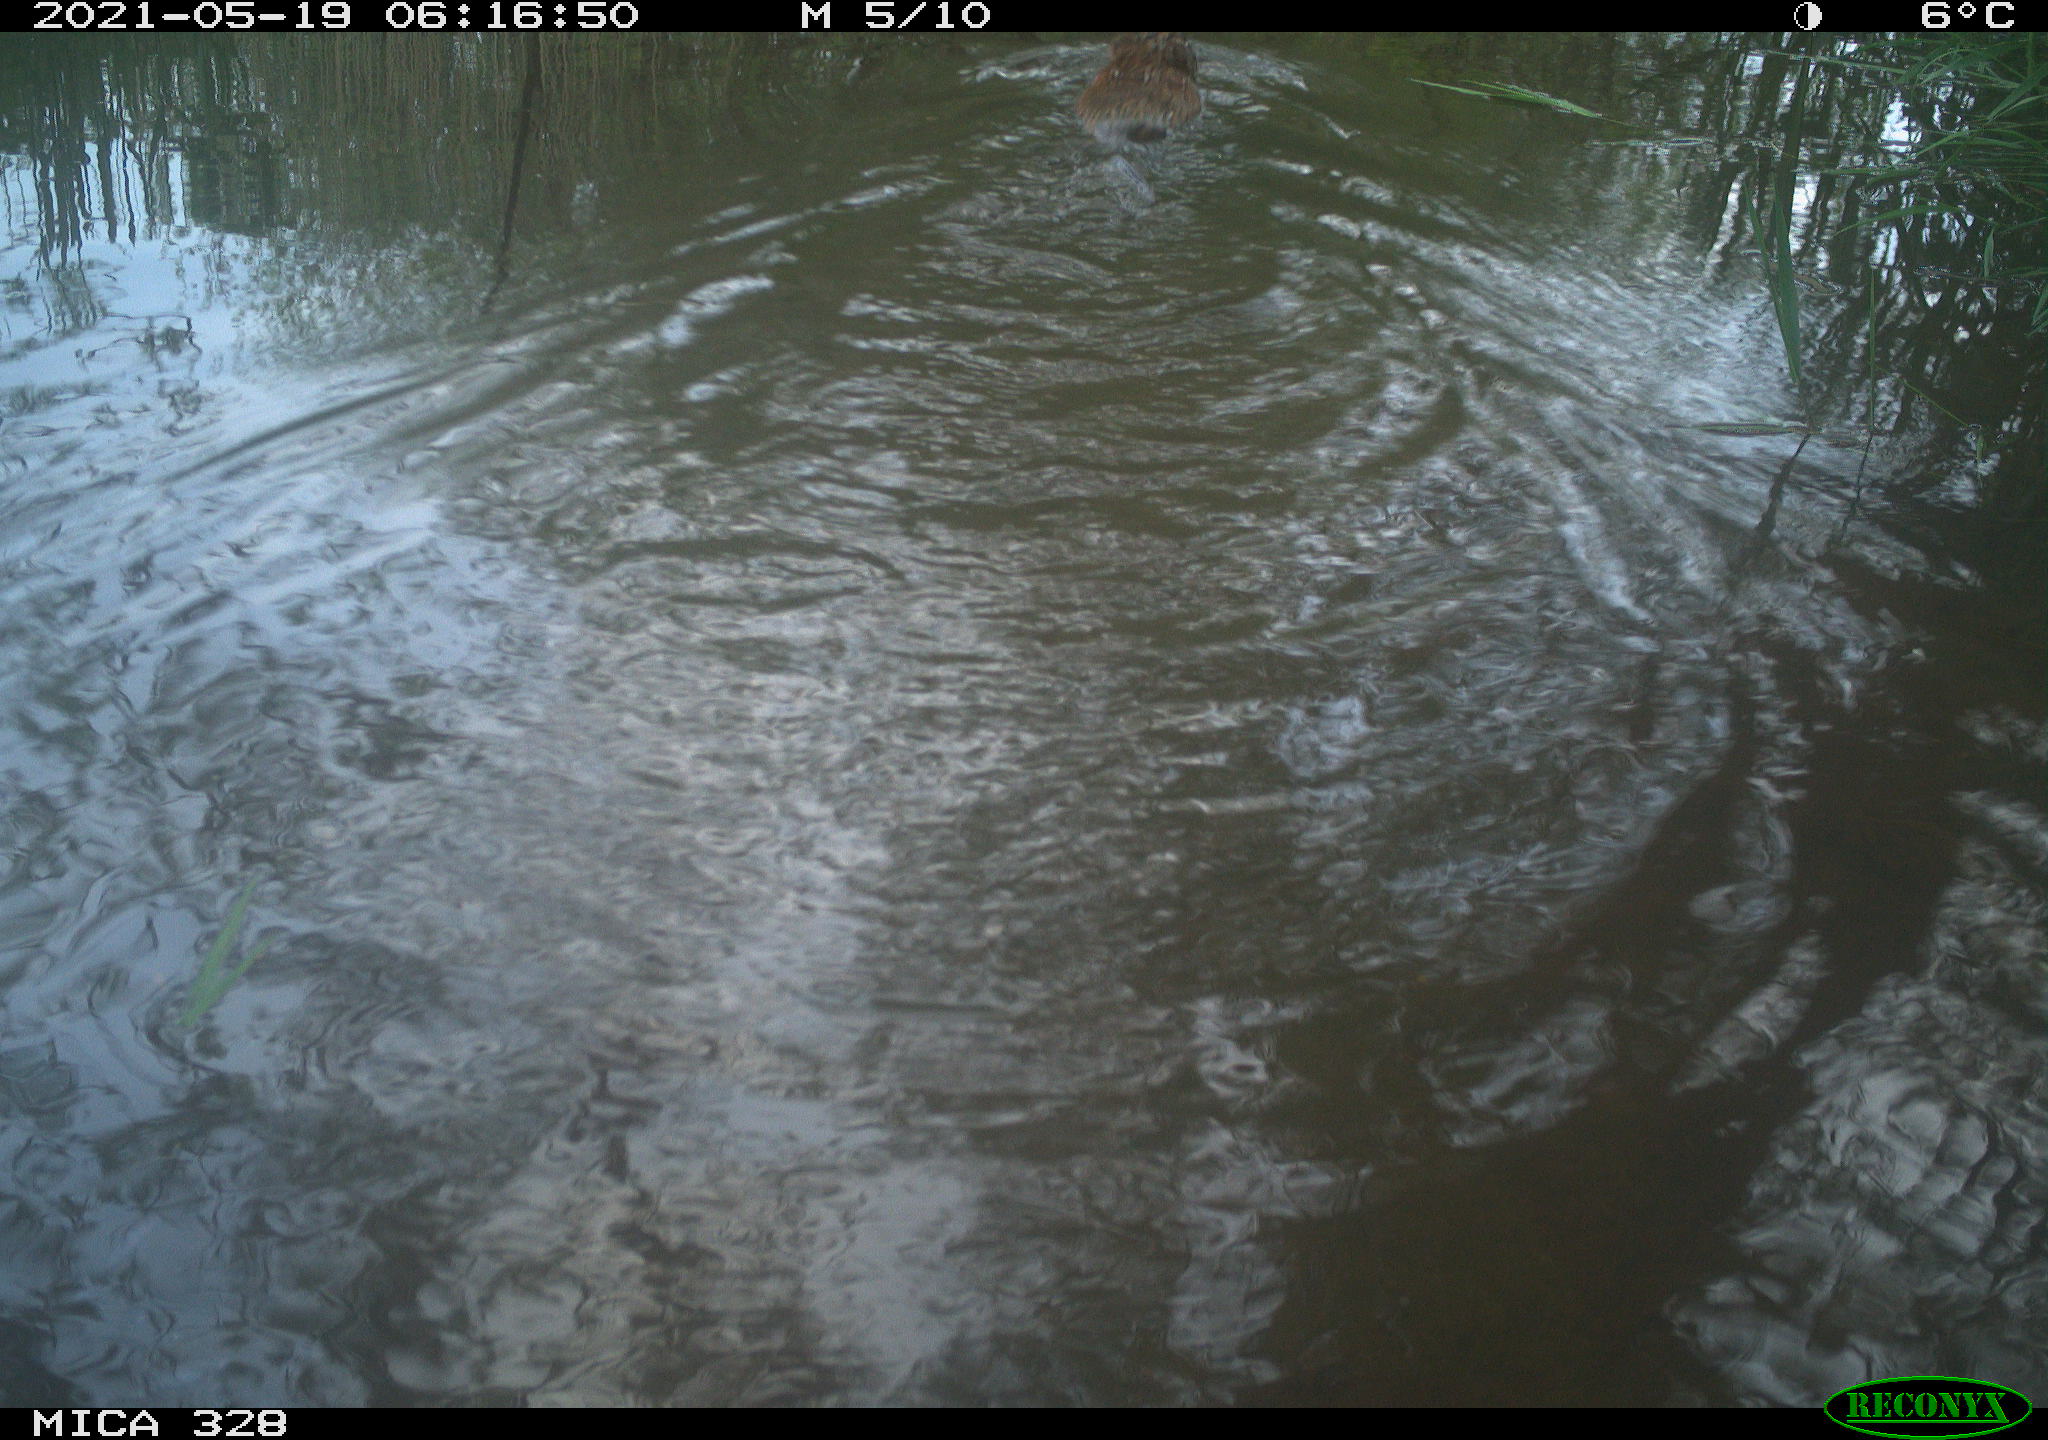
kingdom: Animalia
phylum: Chordata
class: Mammalia
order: Rodentia
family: Cricetidae
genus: Ondatra
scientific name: Ondatra zibethicus
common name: Muskrat
